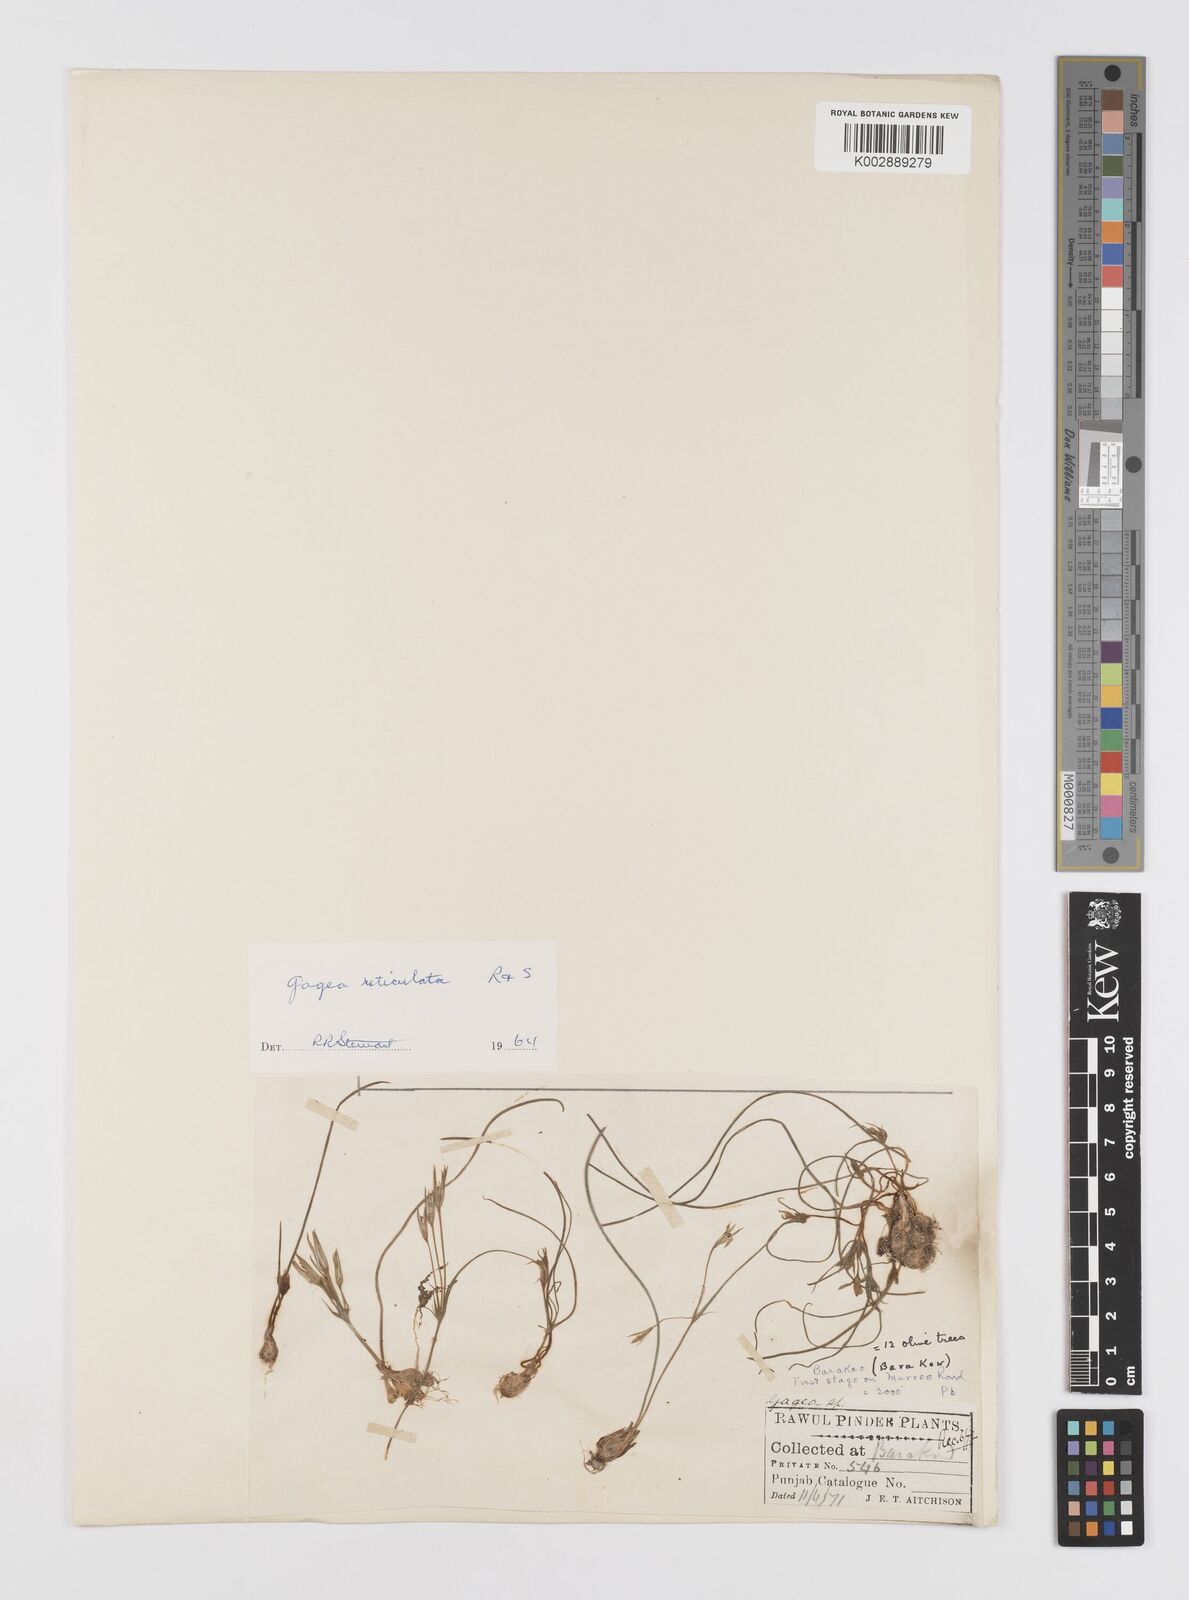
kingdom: Plantae
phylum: Tracheophyta
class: Liliopsida
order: Liliales
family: Liliaceae
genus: Gagea
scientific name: Gagea reticulata
